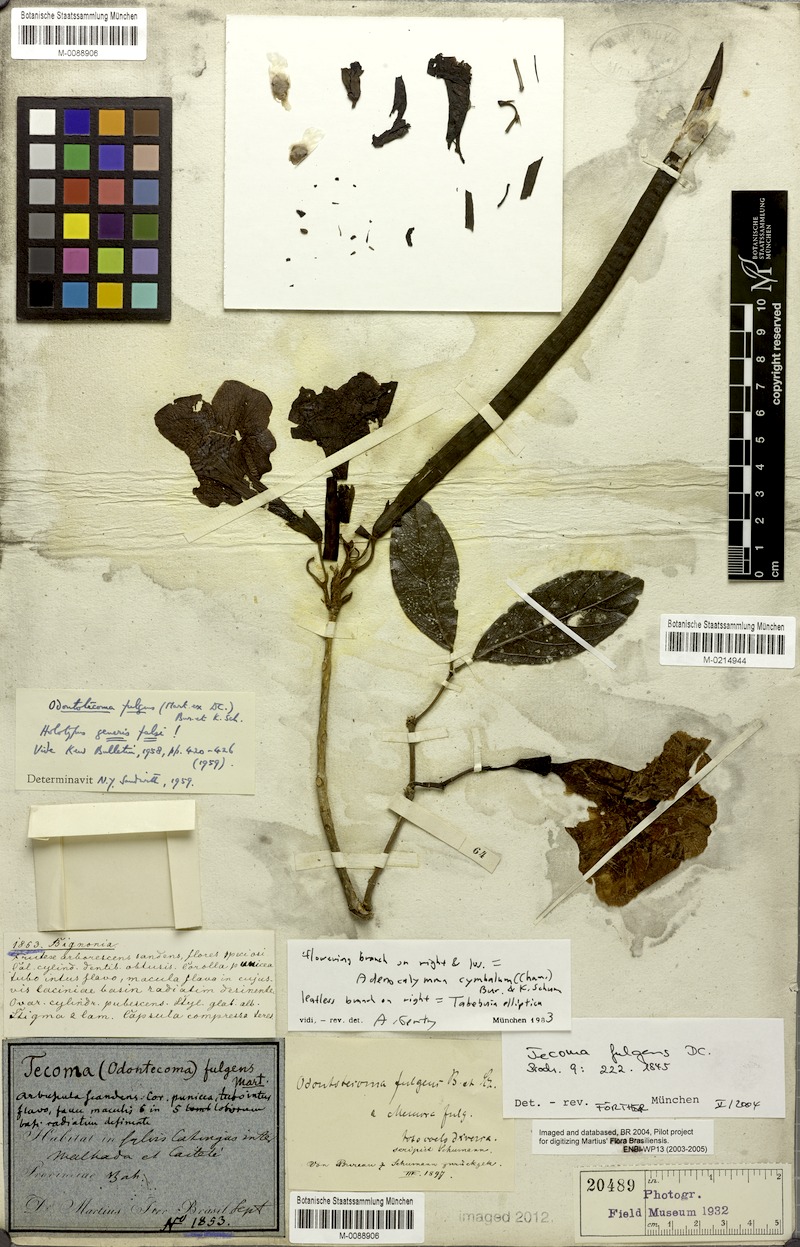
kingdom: Plantae
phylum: Tracheophyta
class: Magnoliopsida
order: Lamiales
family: Bignoniaceae
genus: Tabebuia
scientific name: Tabebuia elliptica
